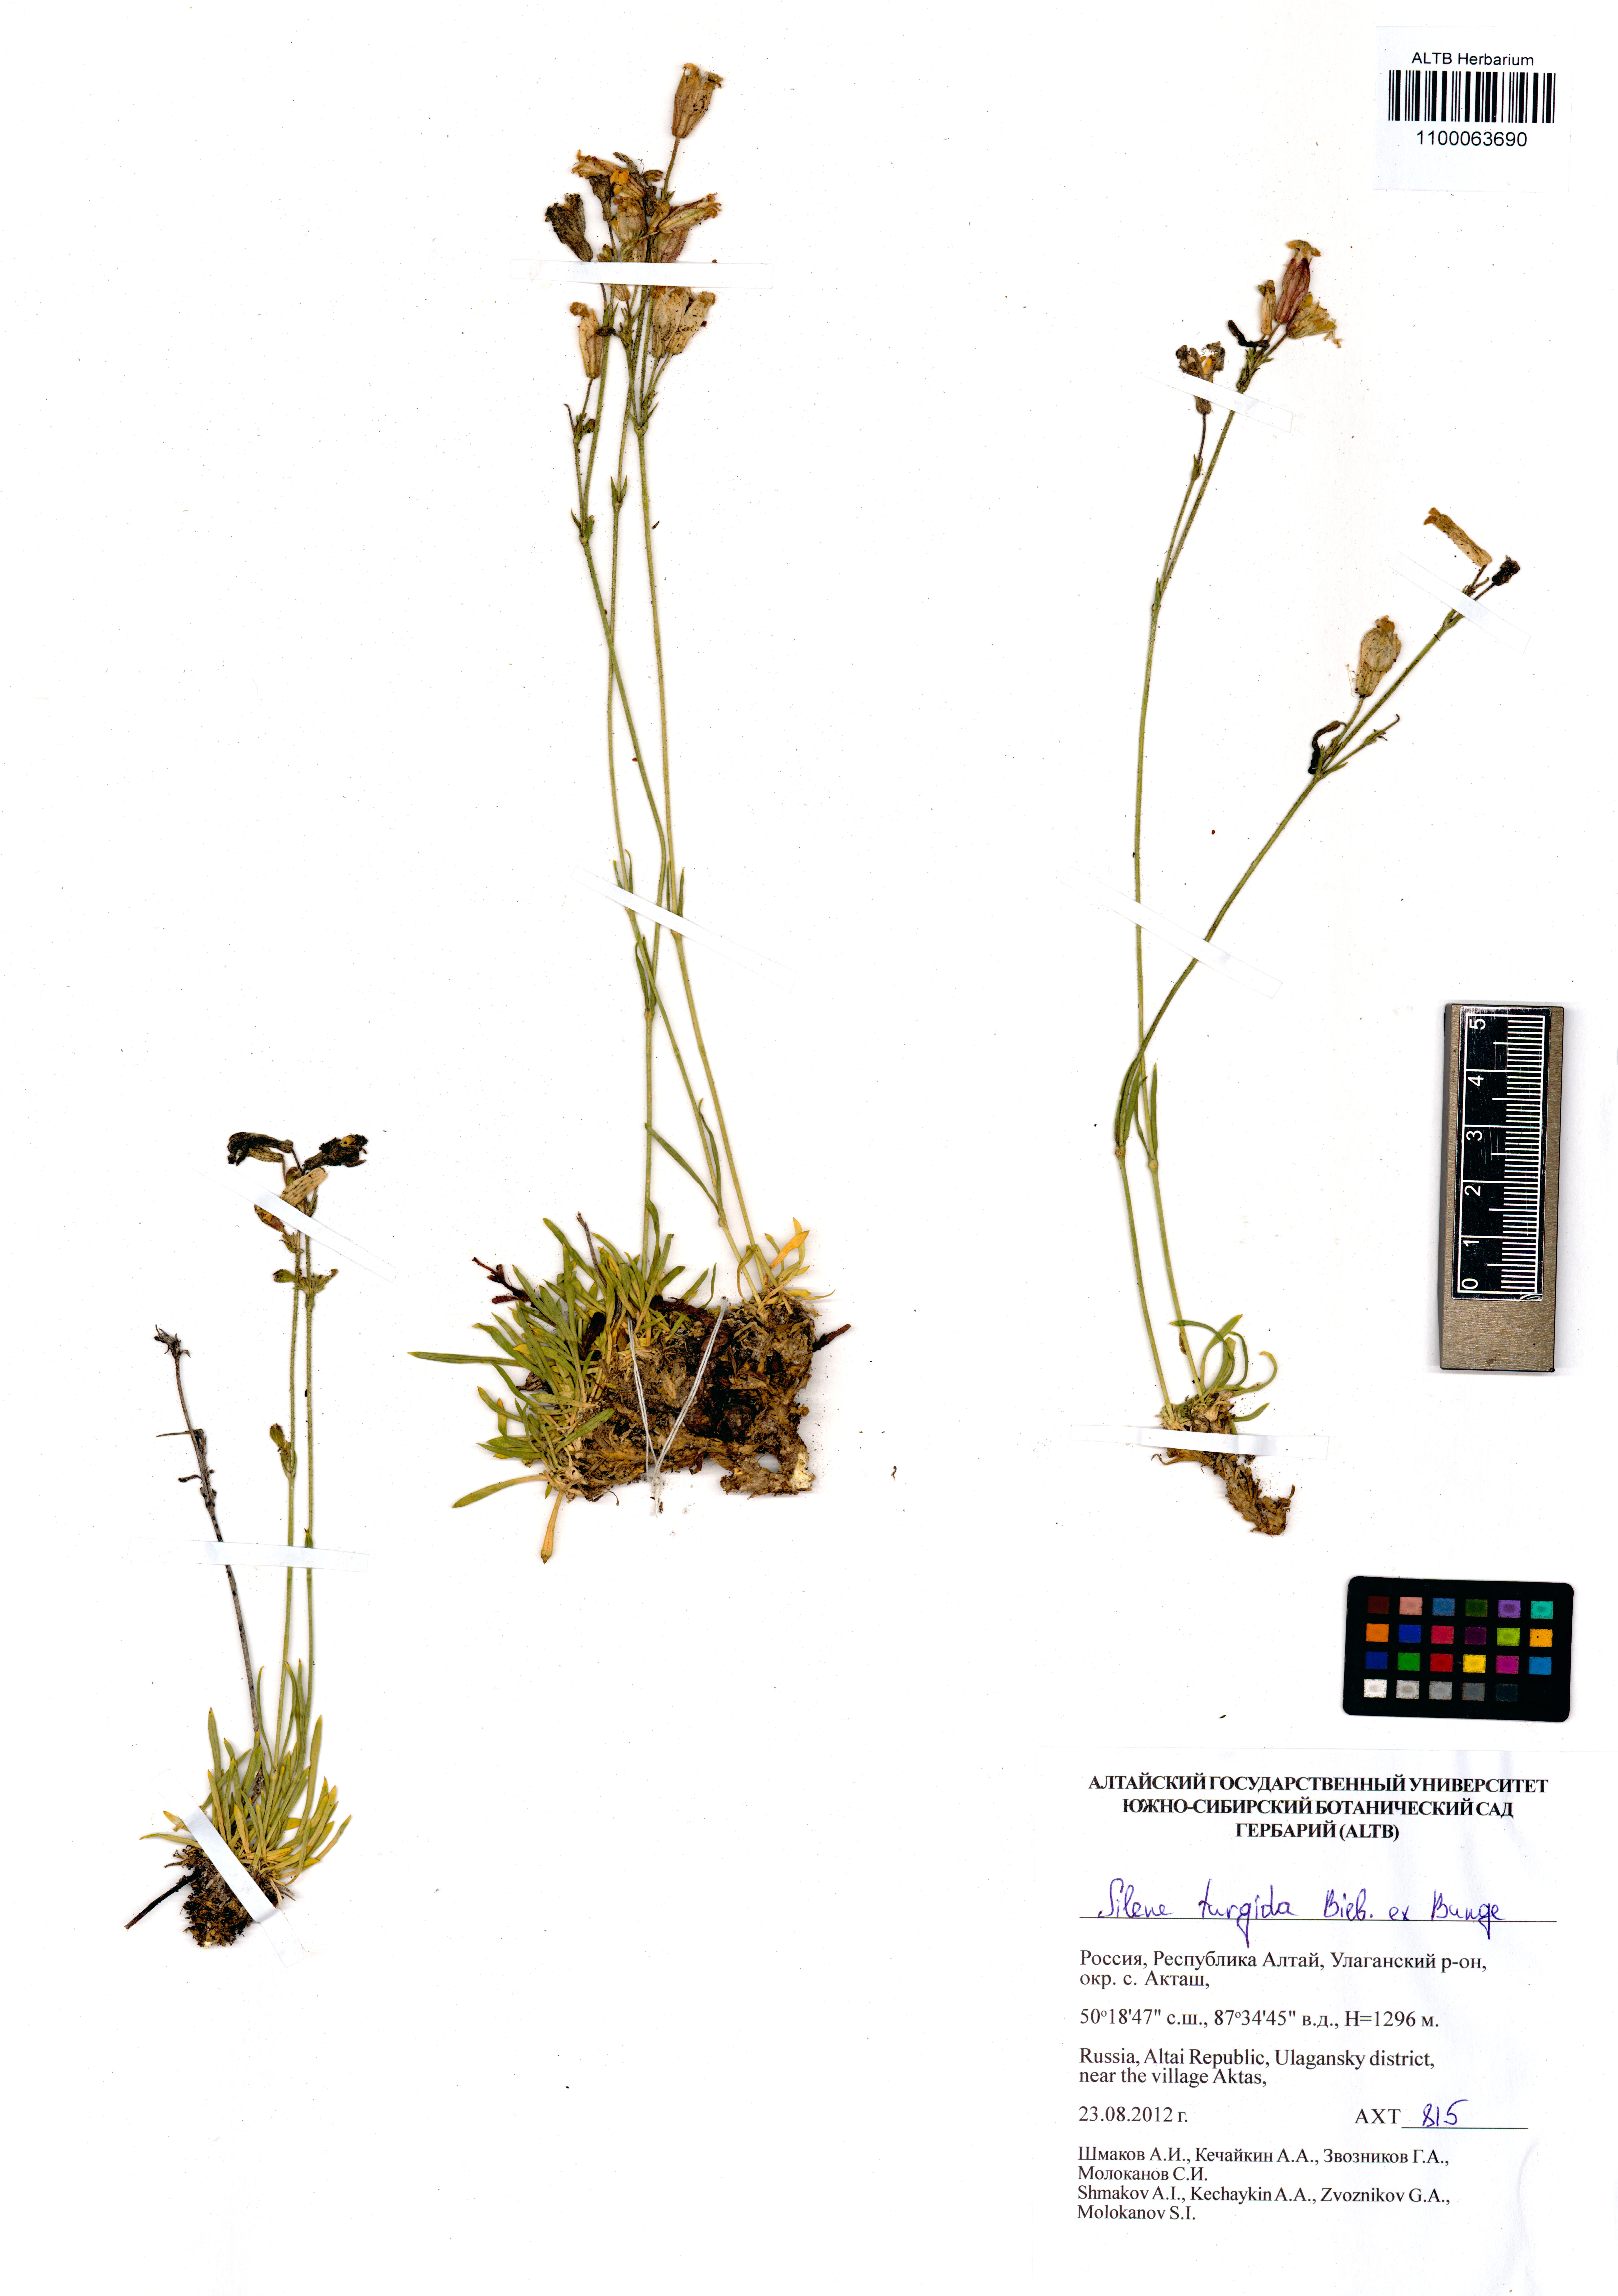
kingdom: Plantae
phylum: Tracheophyta
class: Magnoliopsida
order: Caryophyllales
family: Caryophyllaceae
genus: Silene
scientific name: Silene turgida
